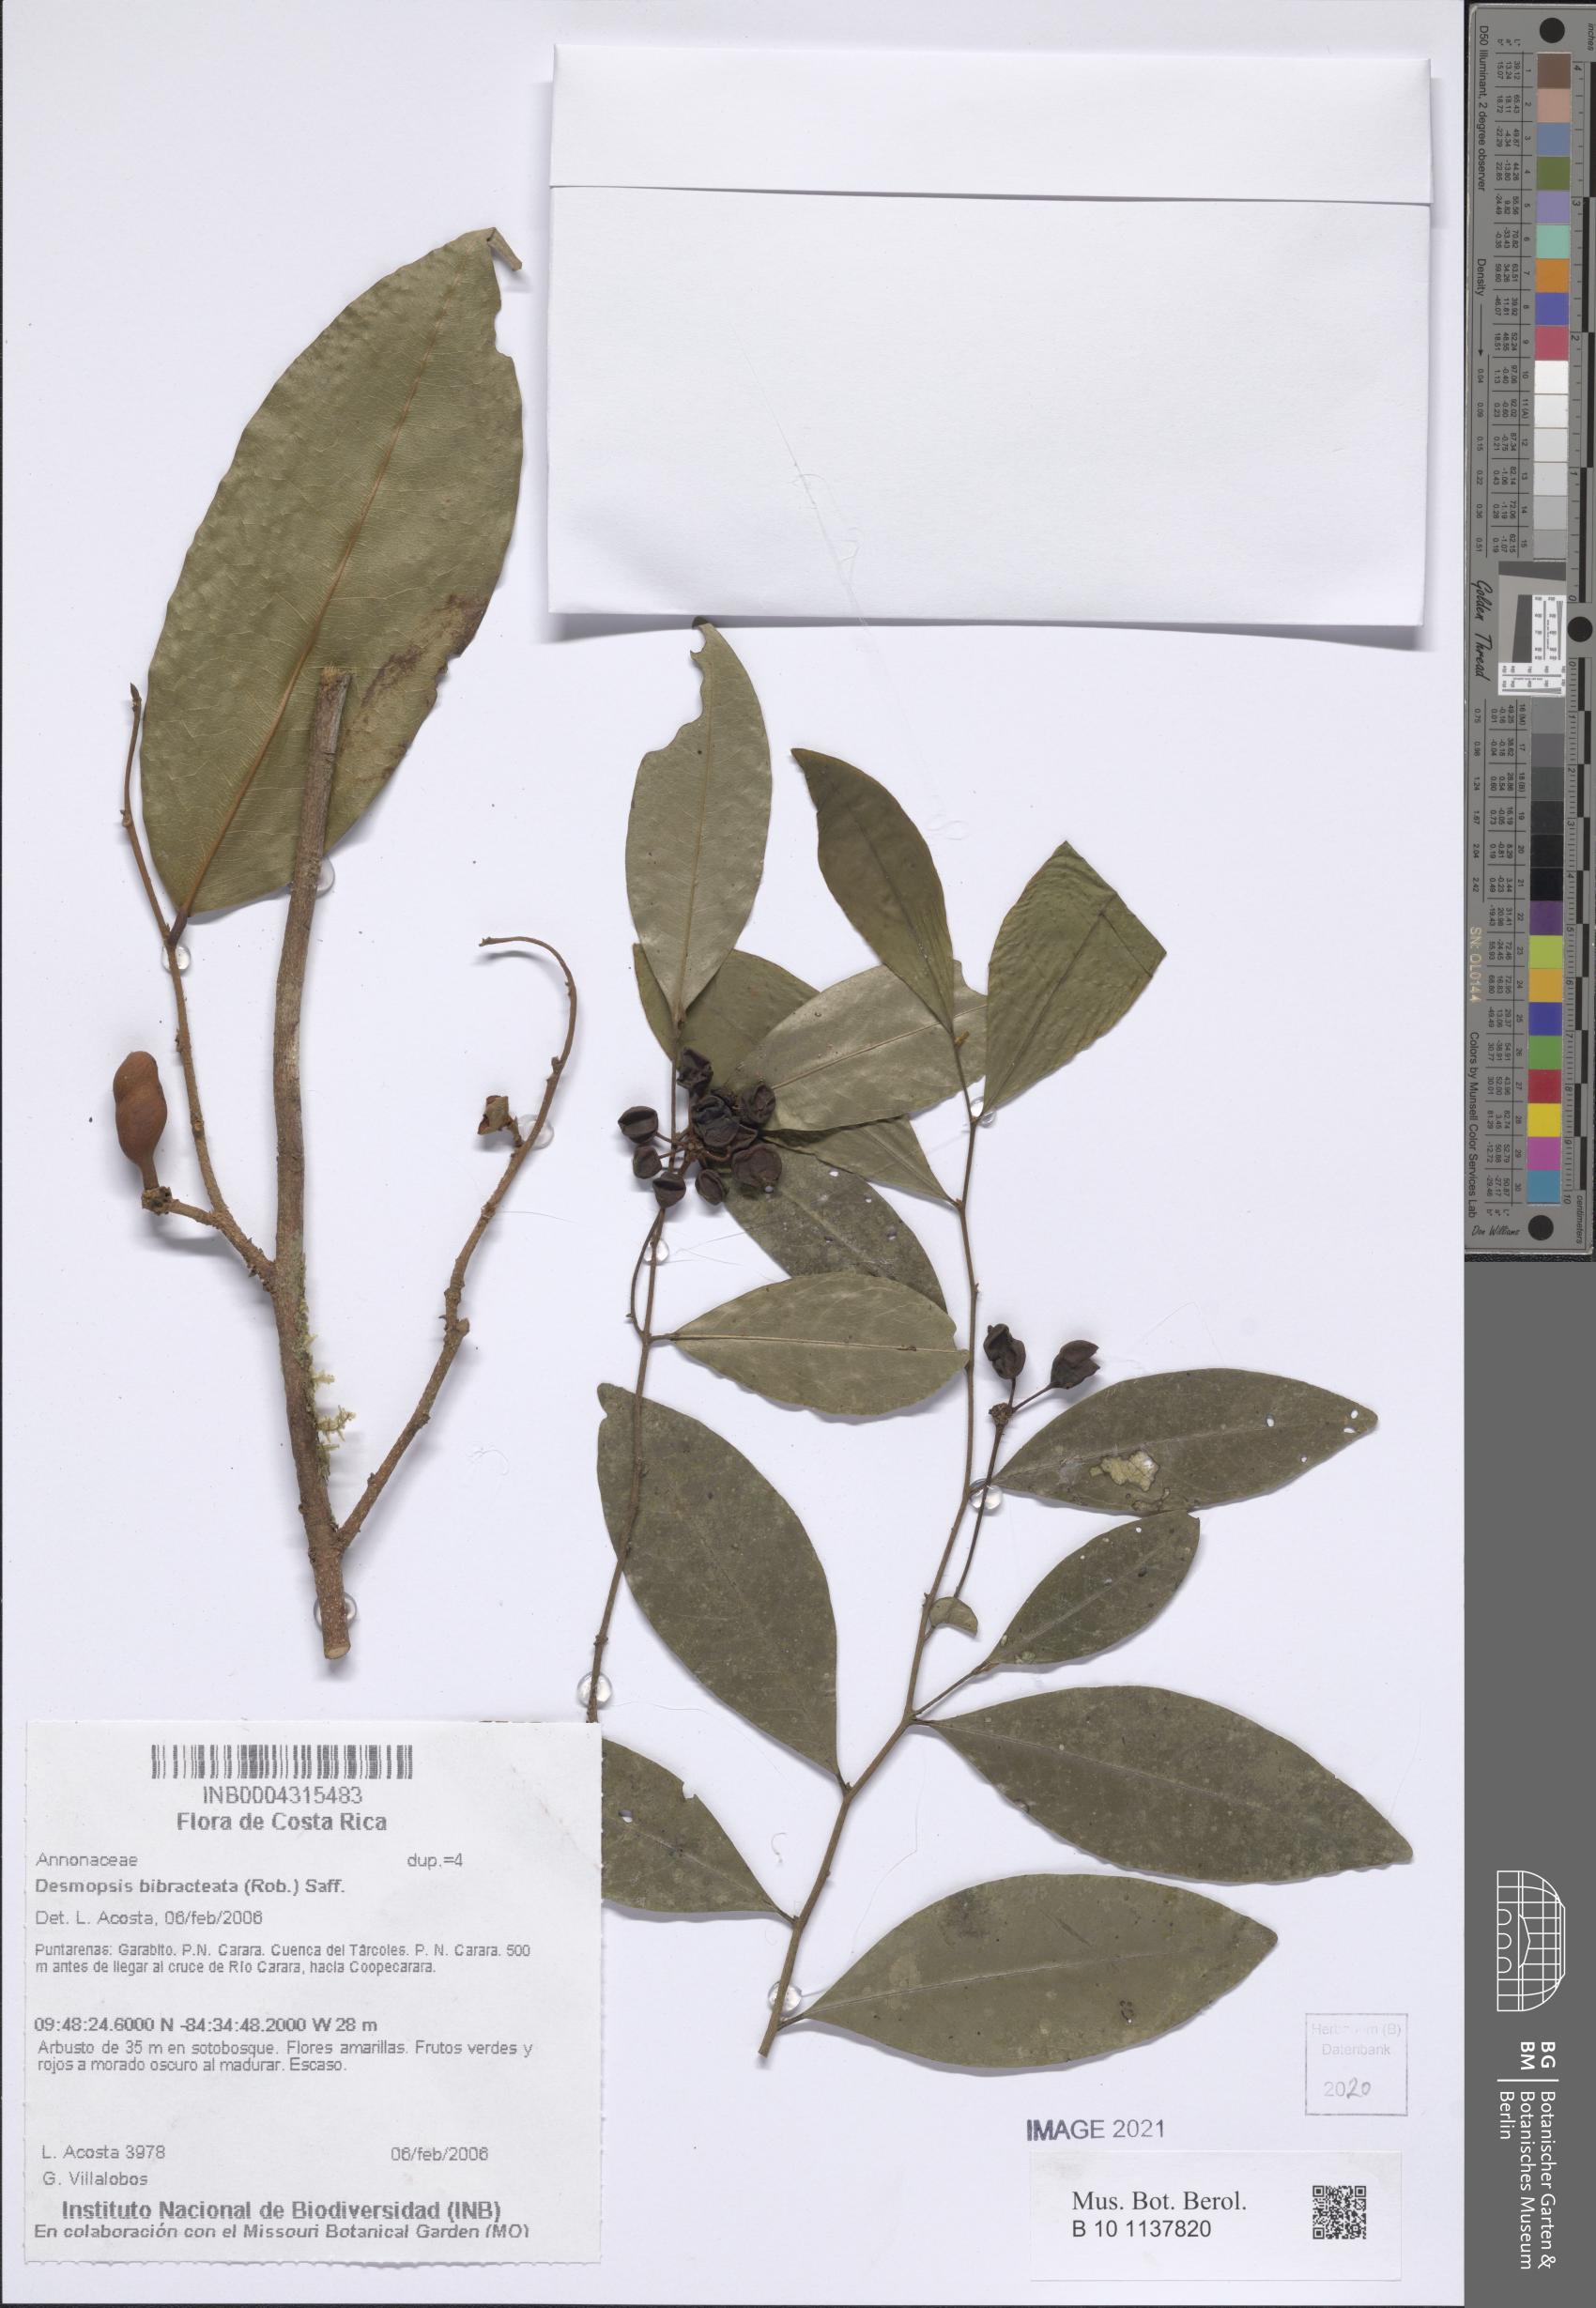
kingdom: Plantae
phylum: Tracheophyta
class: Magnoliopsida
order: Magnoliales
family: Annonaceae
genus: Desmopsis
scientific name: Desmopsis bibracteata
